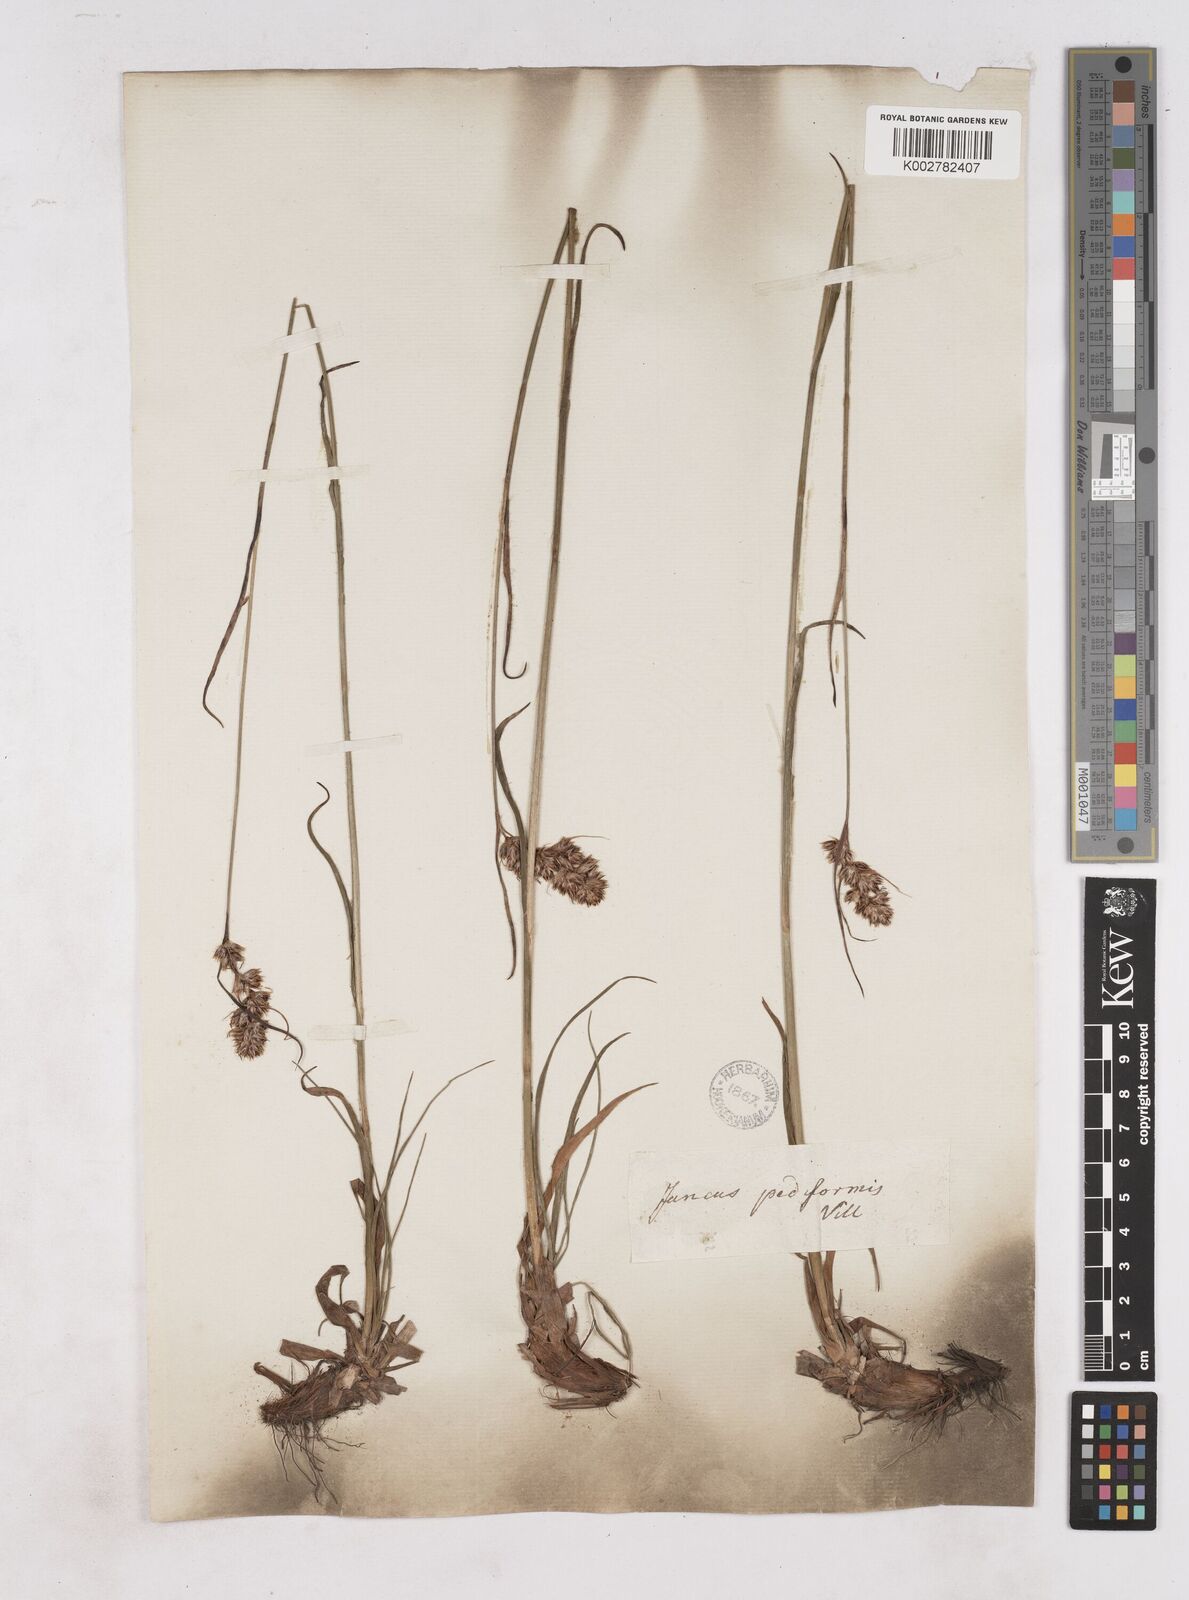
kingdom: Plantae
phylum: Tracheophyta
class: Liliopsida
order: Poales
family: Juncaceae
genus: Luzula
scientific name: Luzula pediformis
